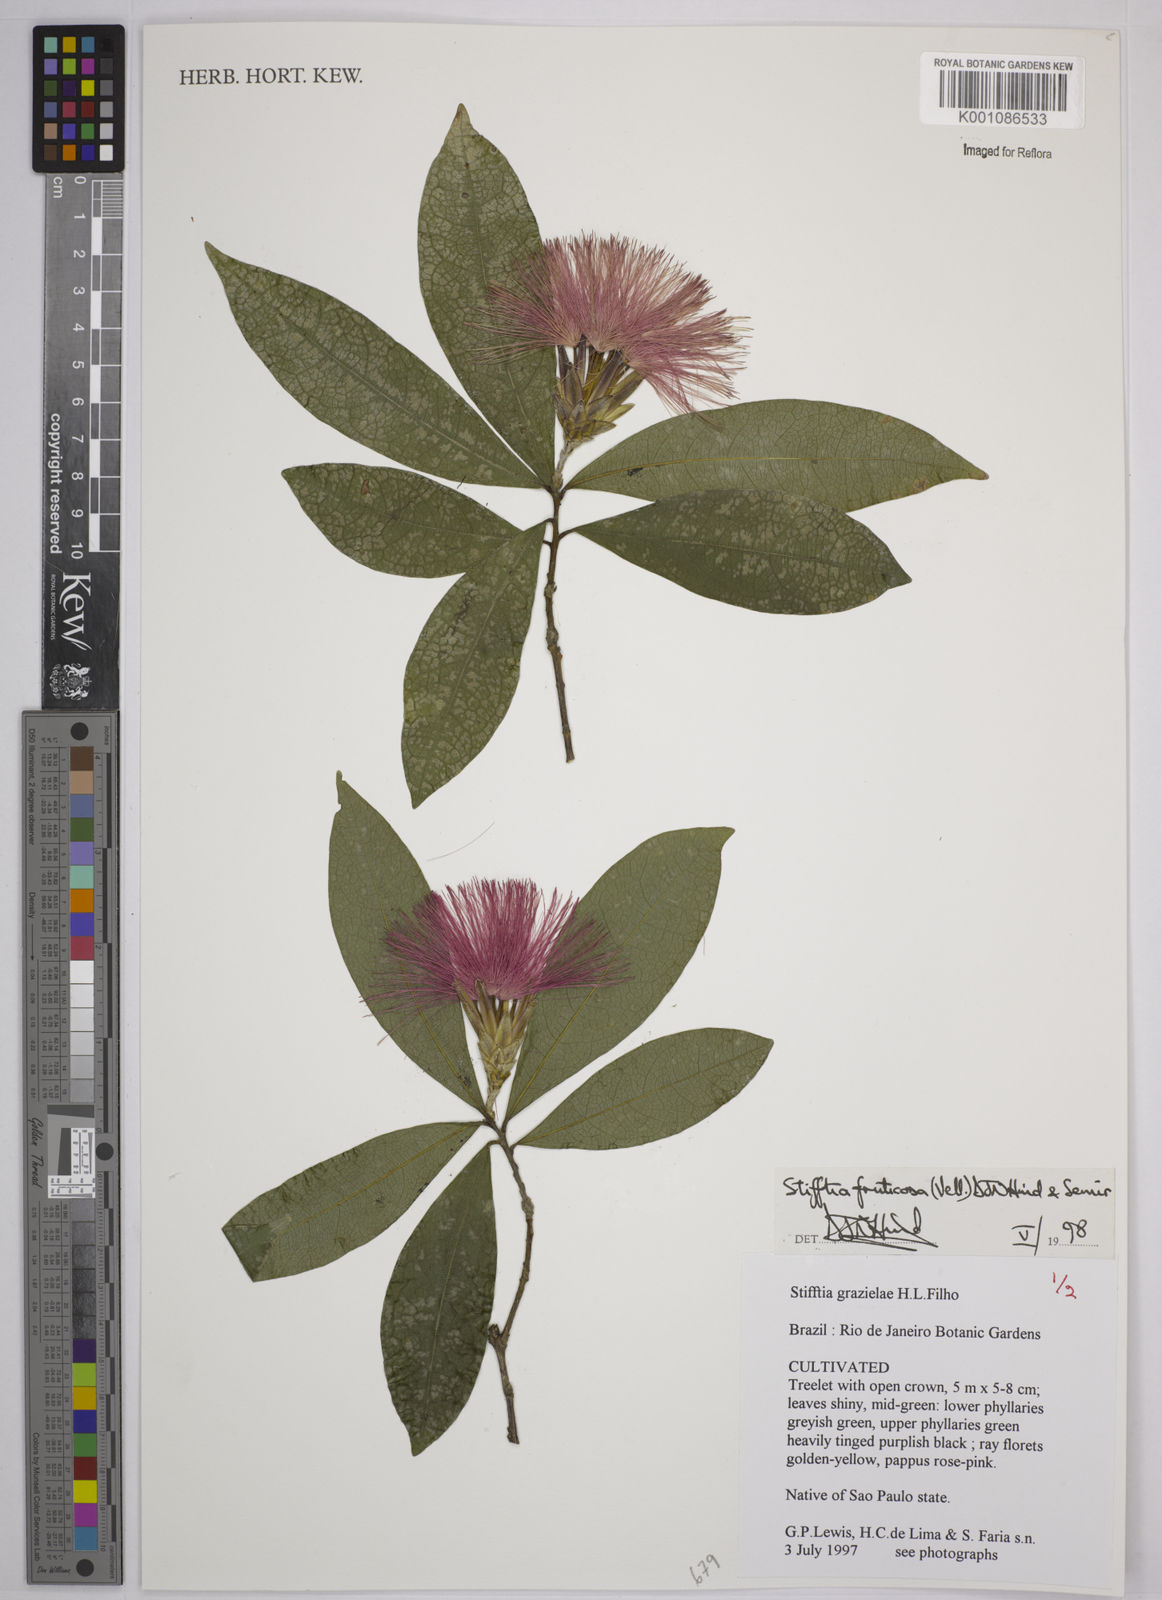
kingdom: Plantae
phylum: Tracheophyta
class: Magnoliopsida
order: Asterales
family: Asteraceae
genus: Stifftia
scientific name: Stifftia fruticosa
